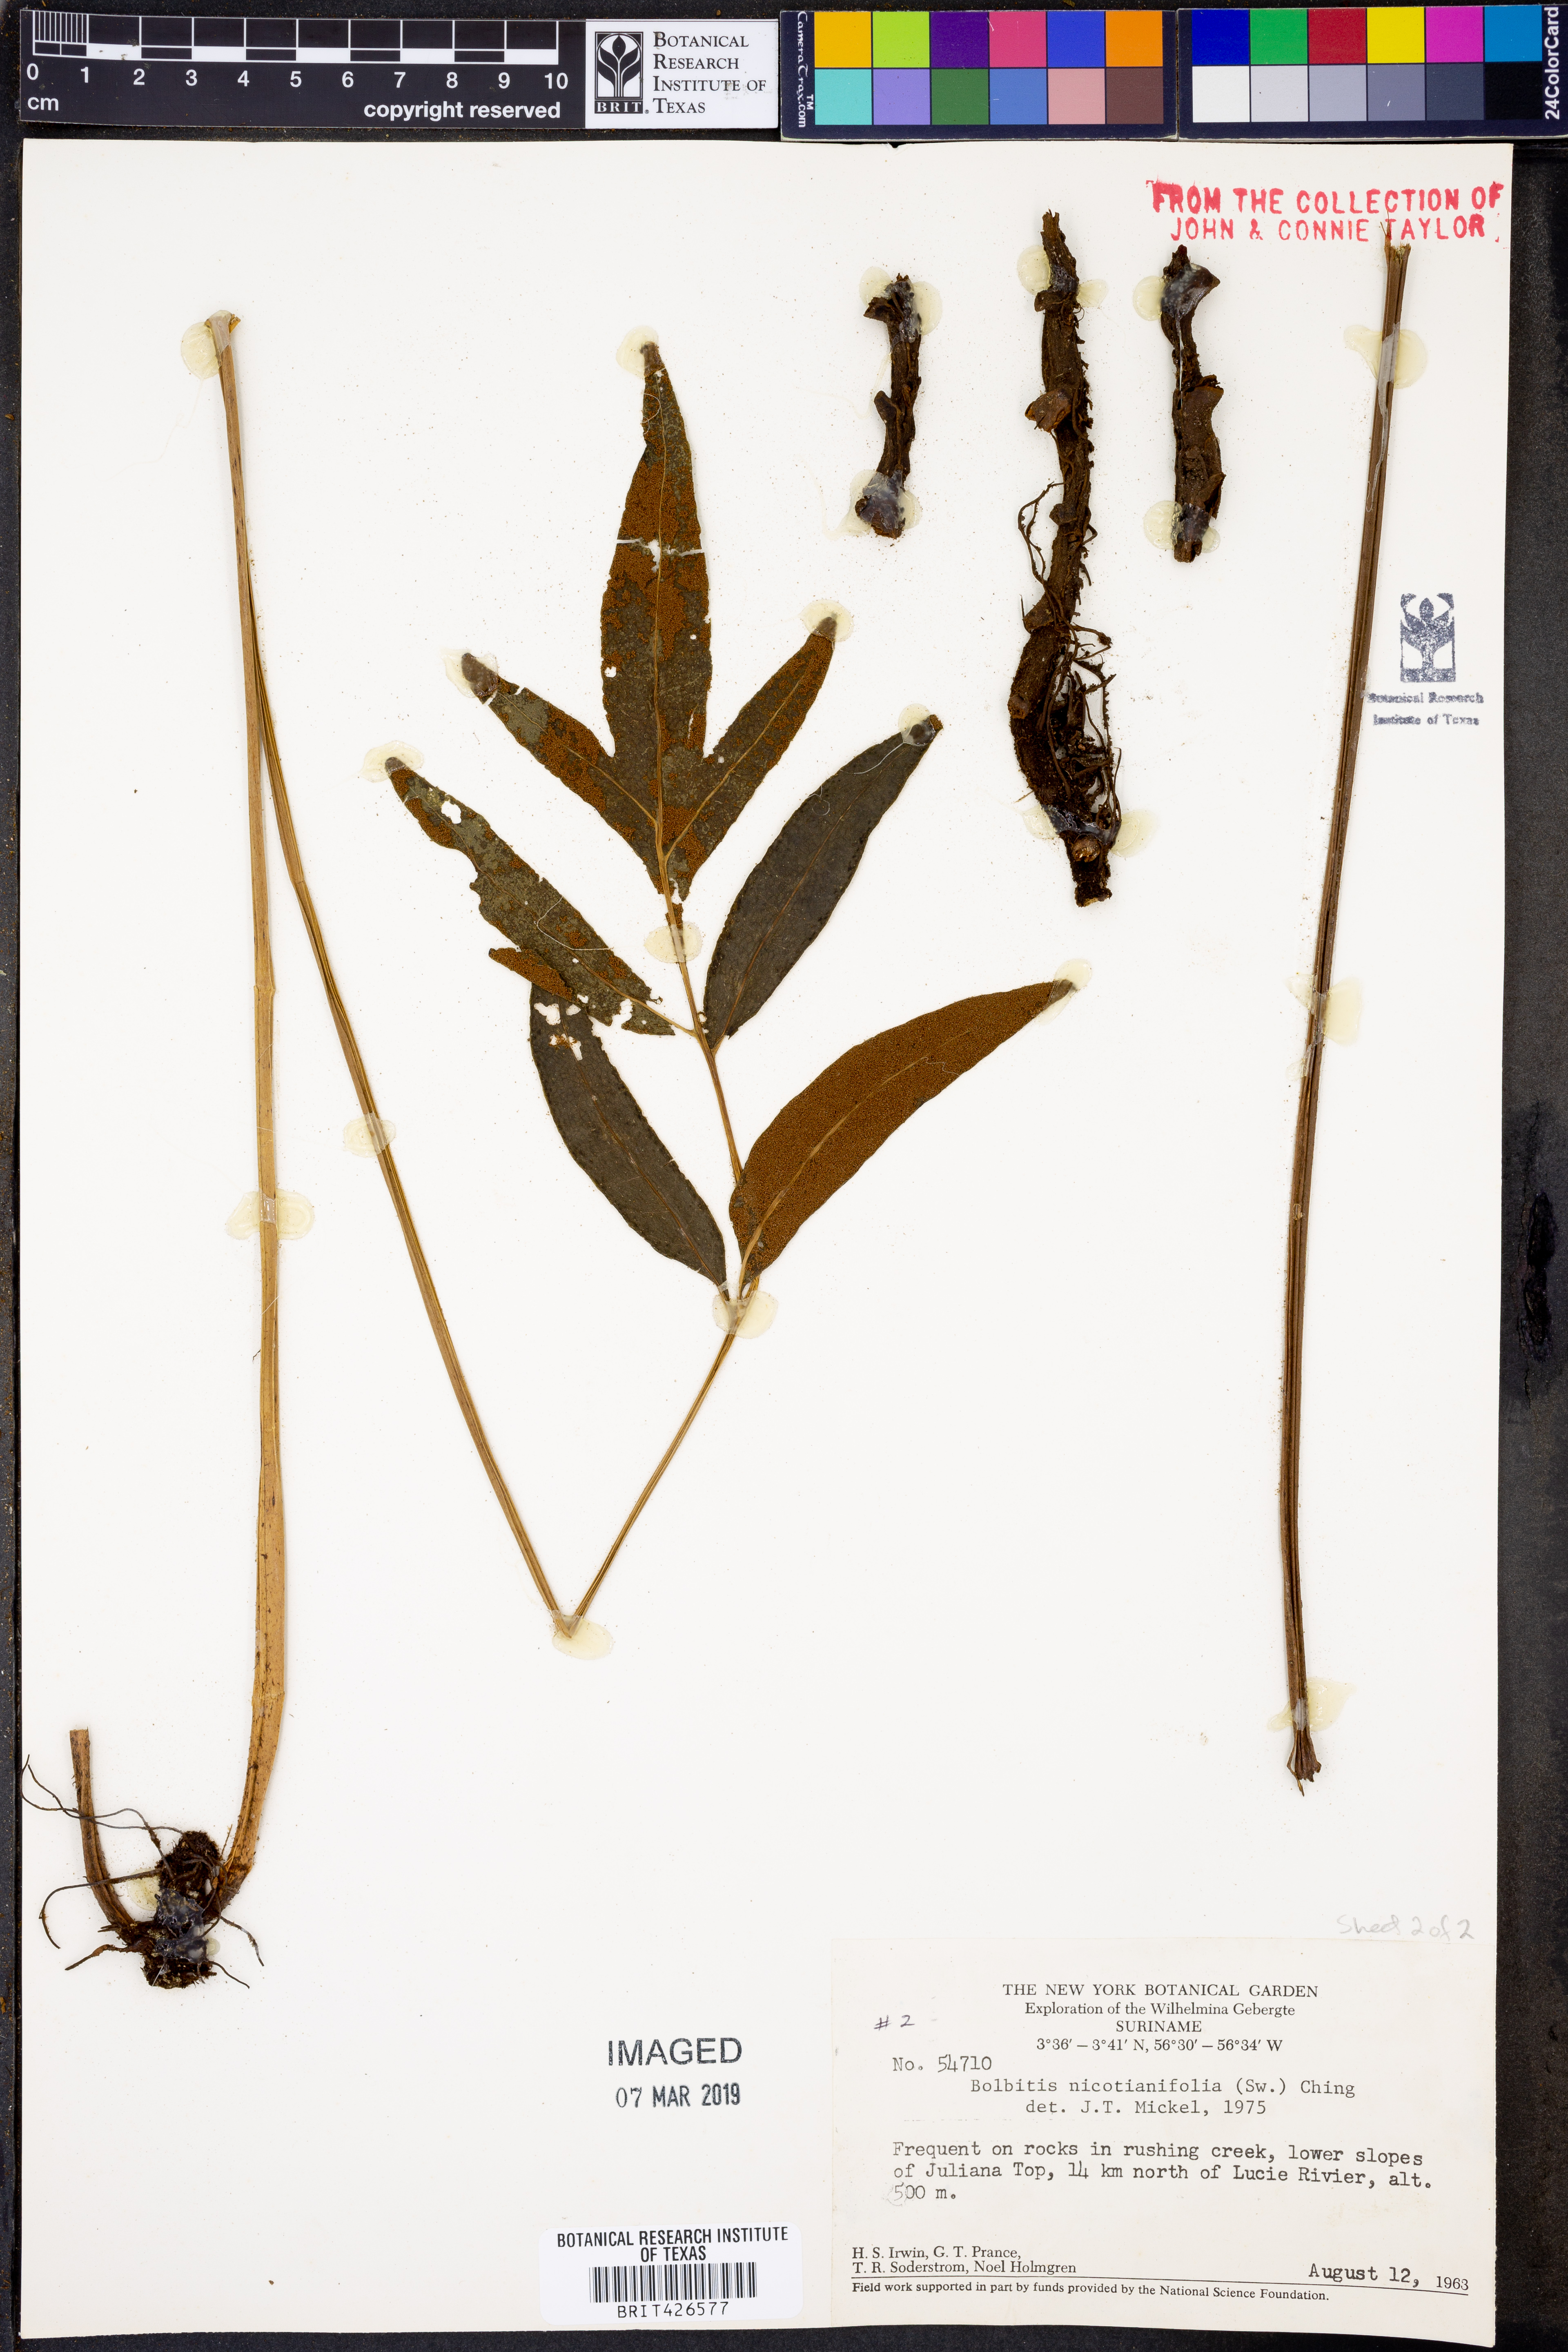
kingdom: Plantae
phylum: Tracheophyta
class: Polypodiopsida
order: Polypodiales
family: Dryopteridaceae
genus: Mickelia
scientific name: Mickelia nicotianifolia
